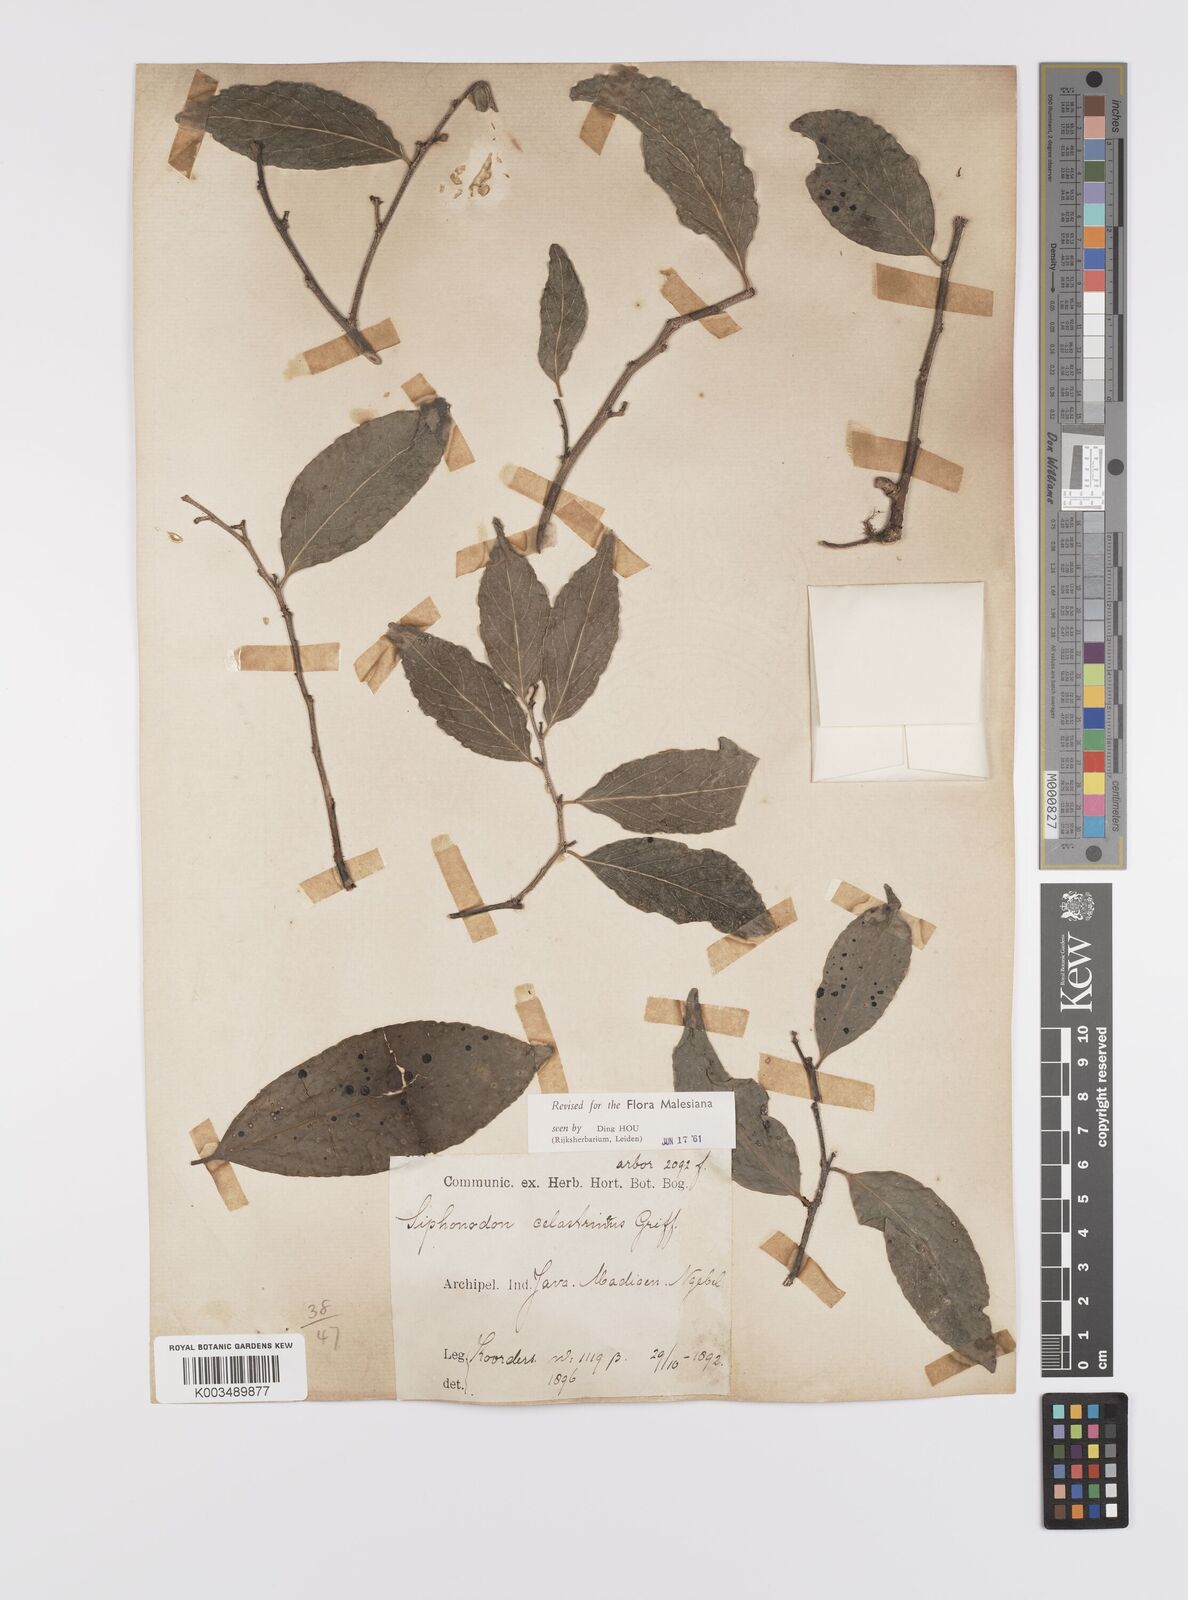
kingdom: Plantae
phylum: Tracheophyta
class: Magnoliopsida
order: Celastrales
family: Celastraceae
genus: Siphonodon
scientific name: Siphonodon celastrineus
